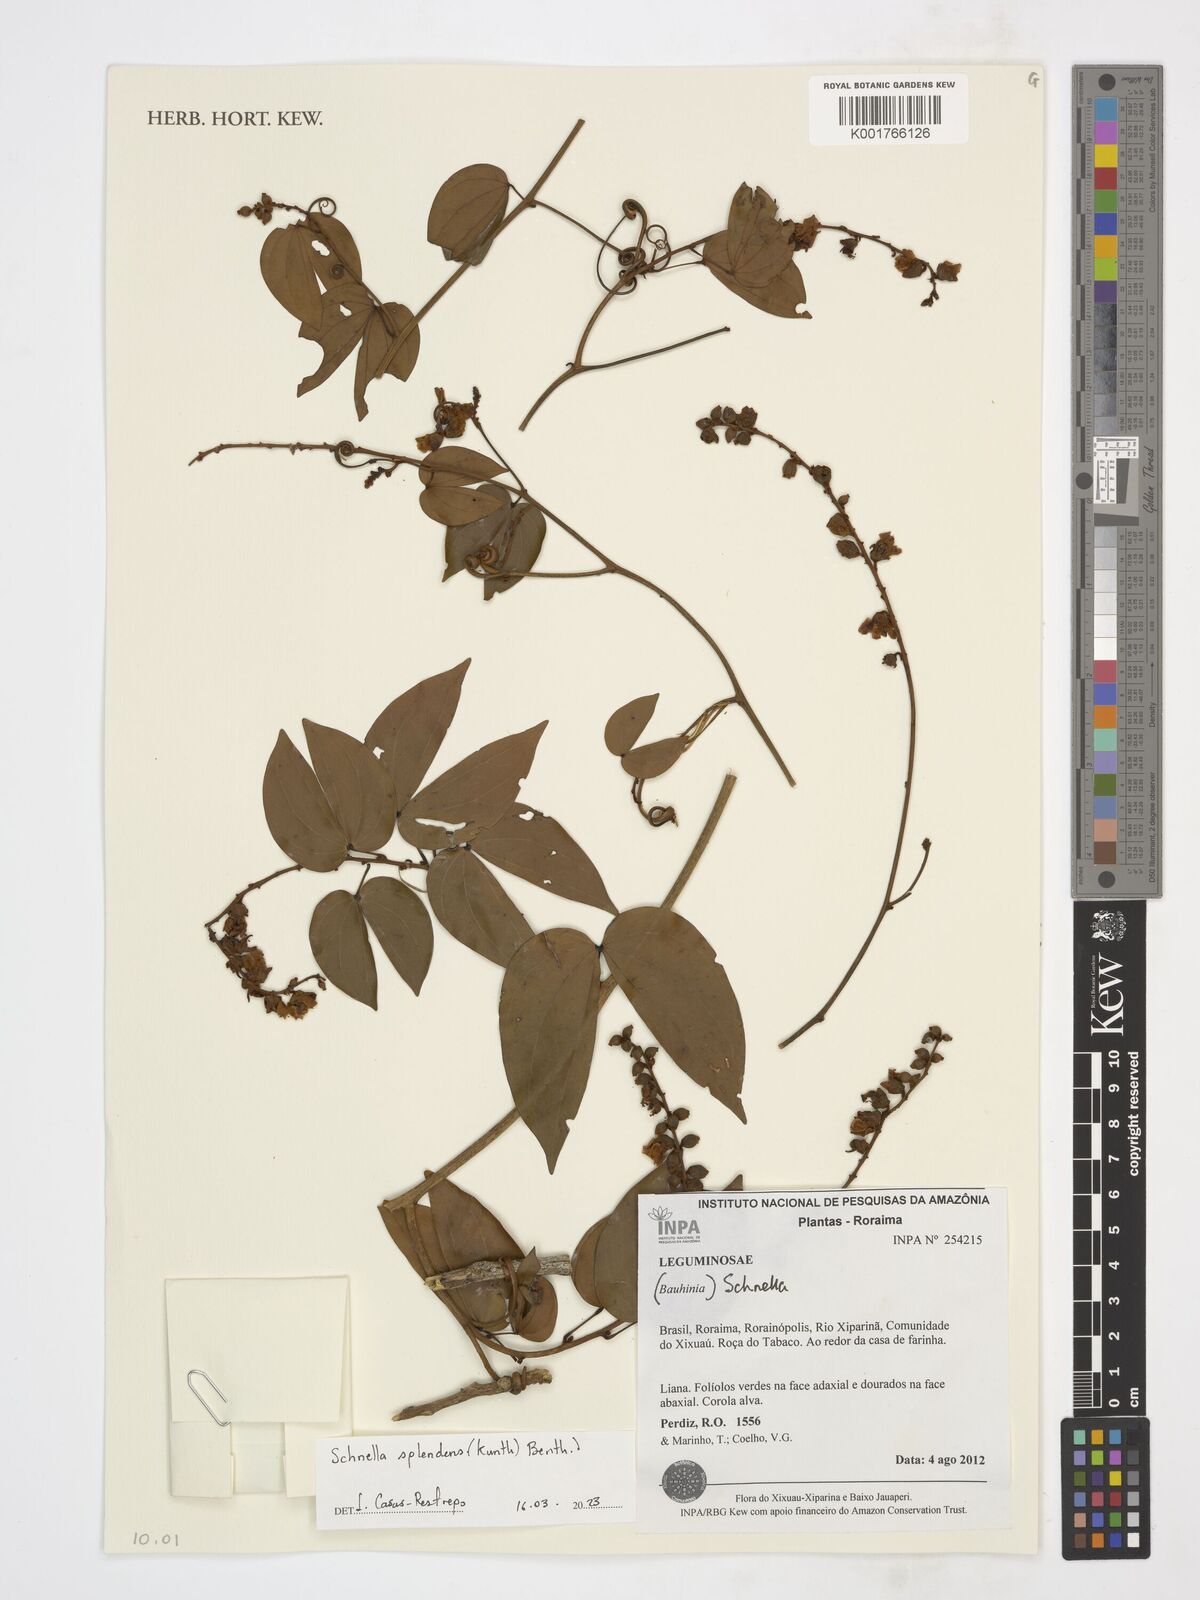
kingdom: Plantae
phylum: Tracheophyta
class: Magnoliopsida
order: Fabales
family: Fabaceae
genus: Schnella
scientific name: Schnella splendens
